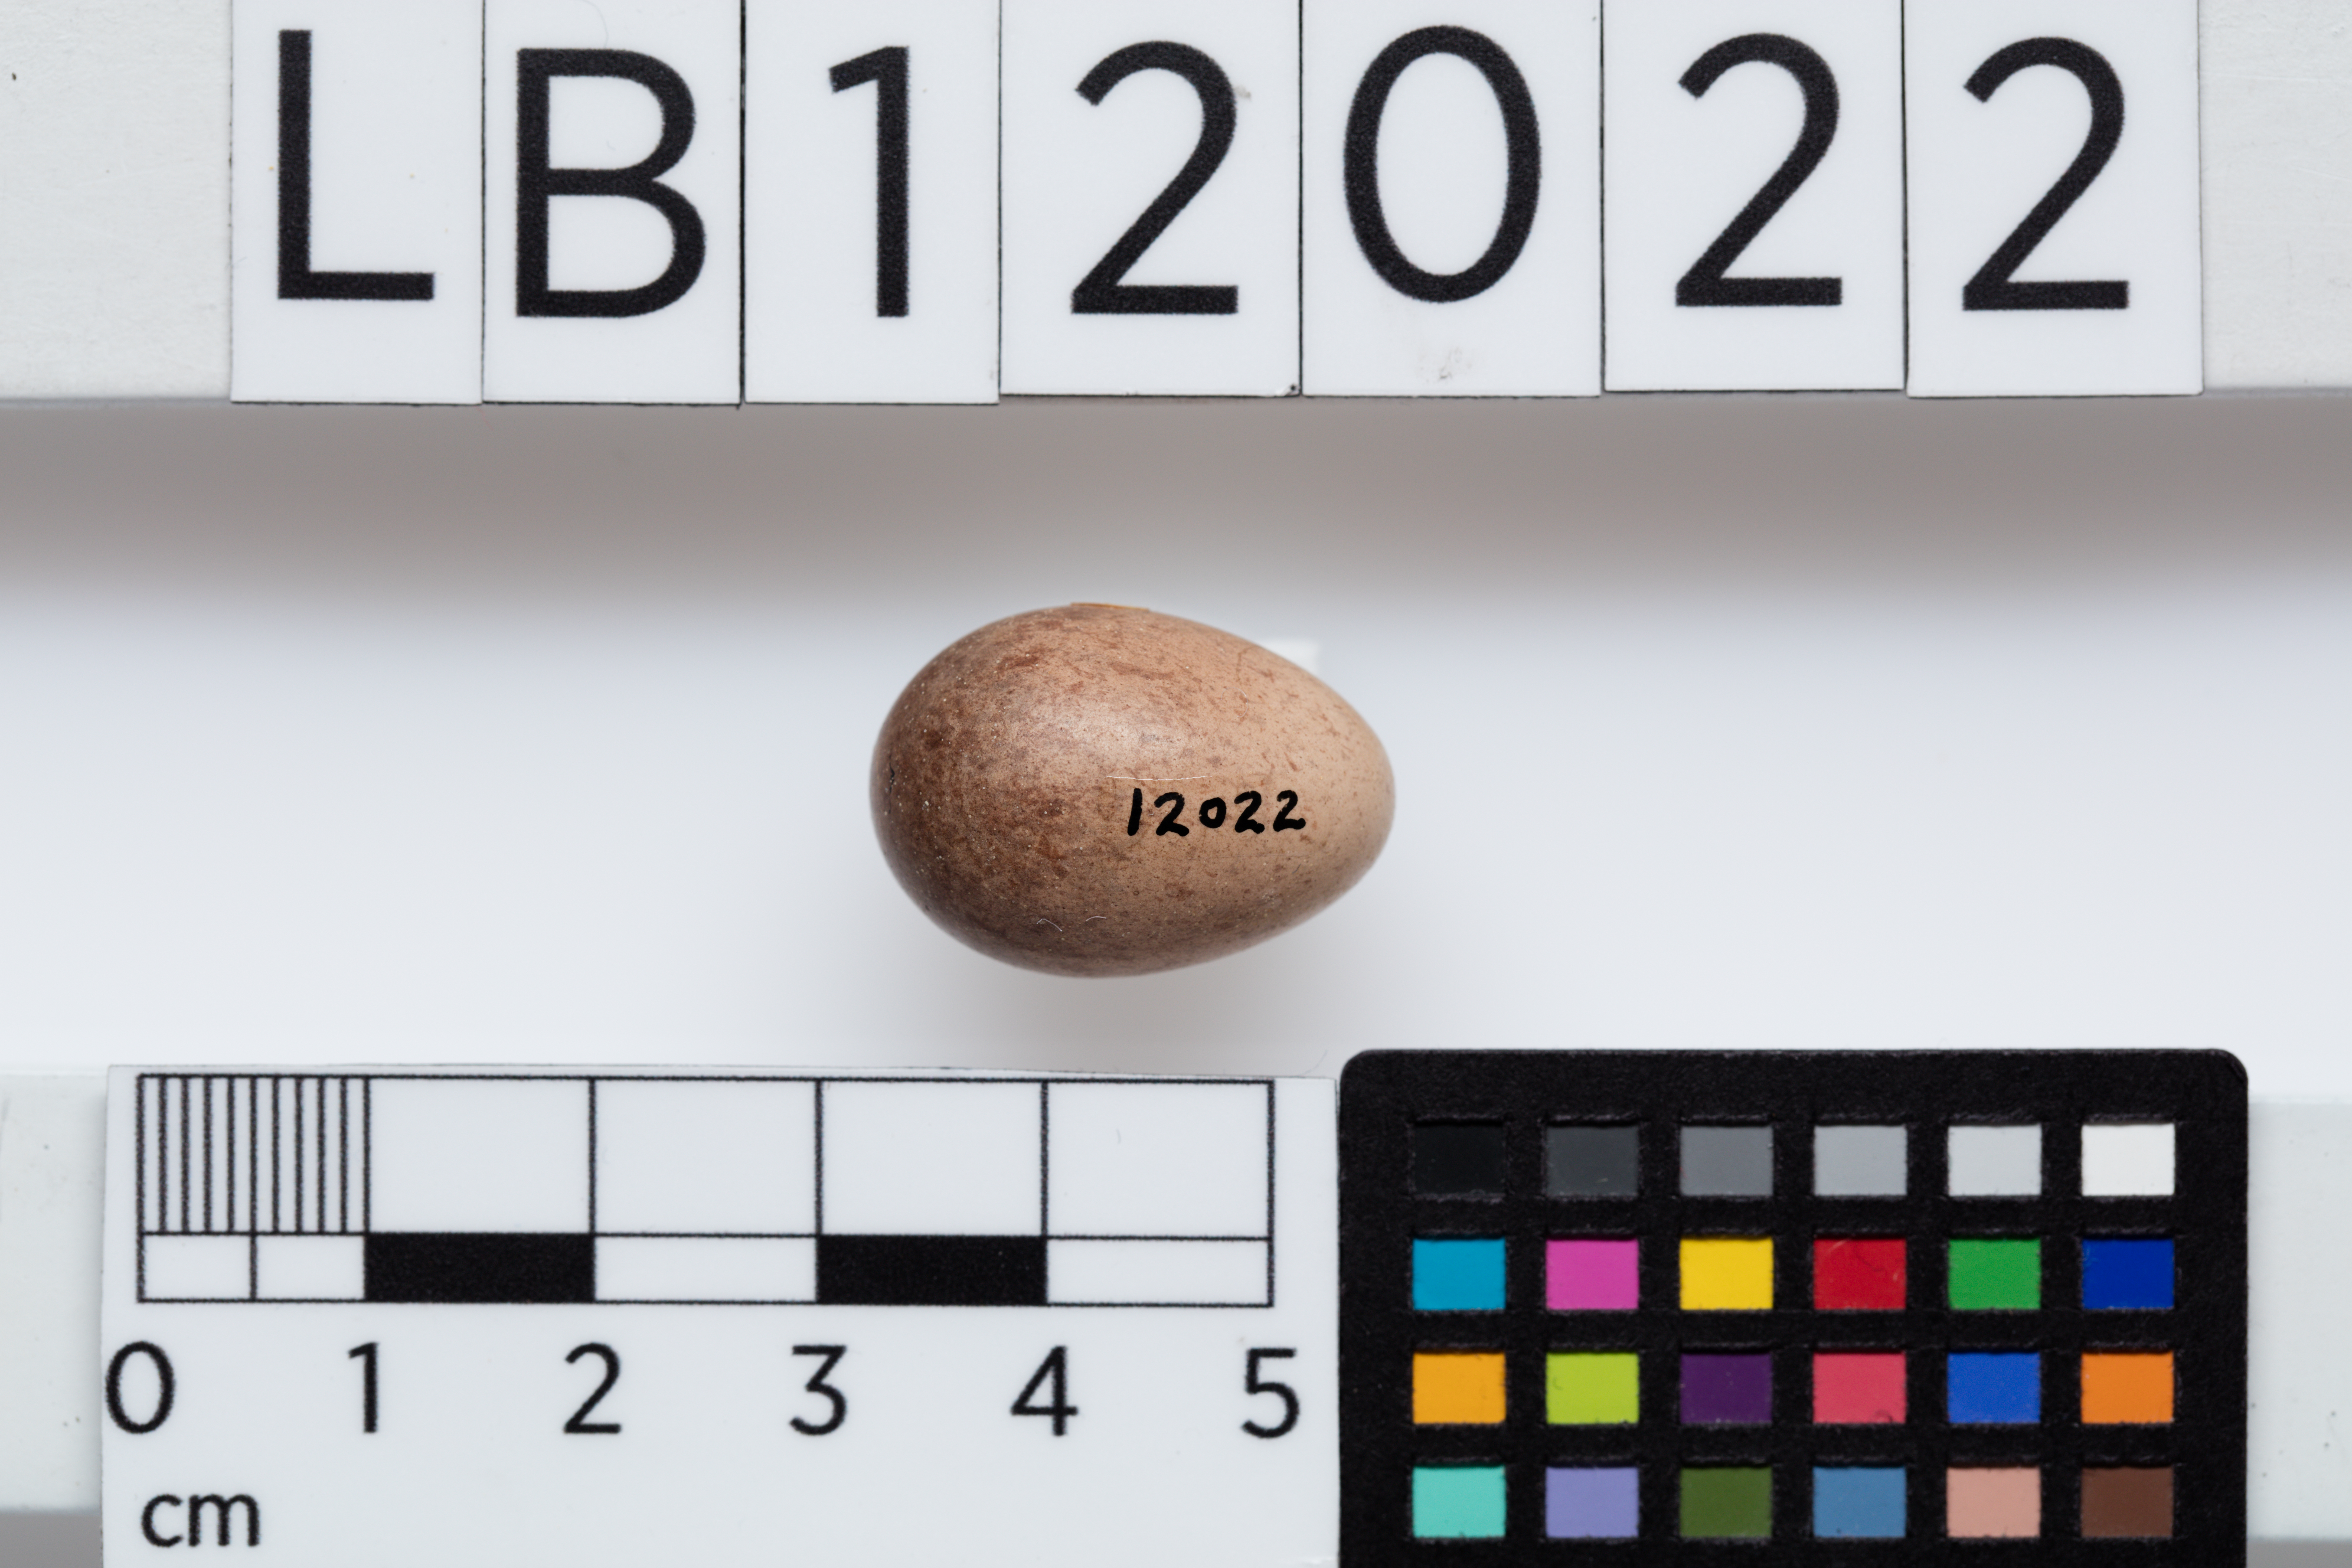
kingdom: Animalia
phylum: Chordata
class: Aves
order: Passeriformes
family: Climacteridae
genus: Climacteris
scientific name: Climacteris picumnus
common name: Brown treecreeper
